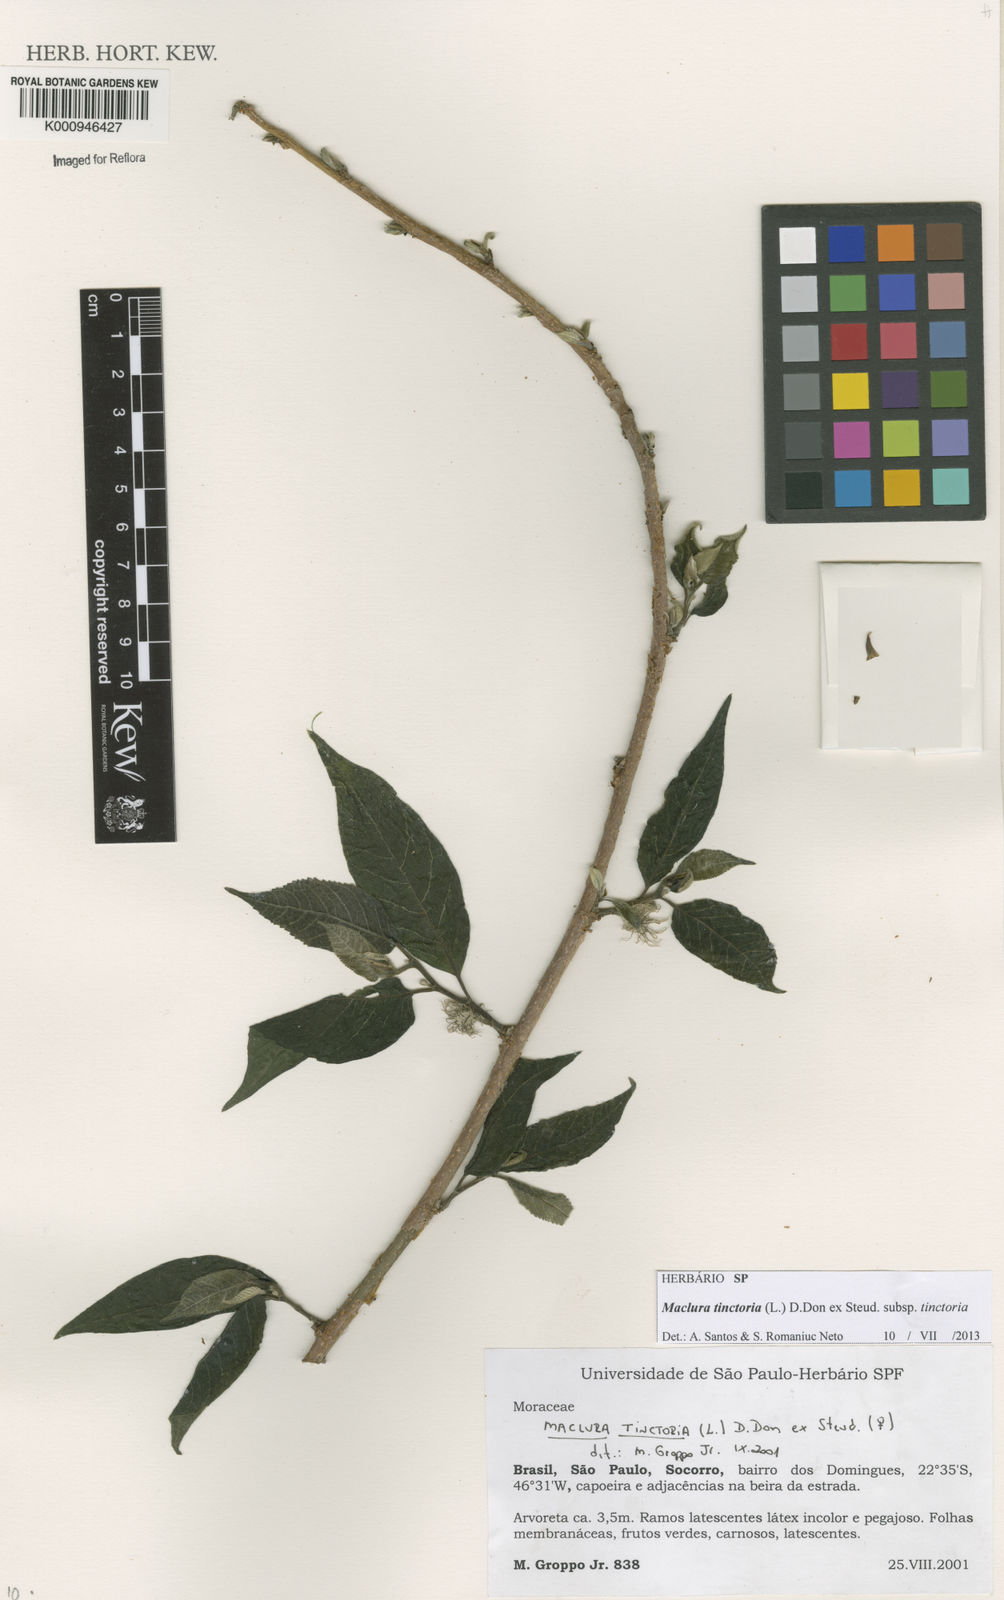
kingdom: Plantae
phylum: Tracheophyta
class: Magnoliopsida
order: Rosales
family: Moraceae
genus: Maclura
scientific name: Maclura tinctoria
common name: Old fustic
